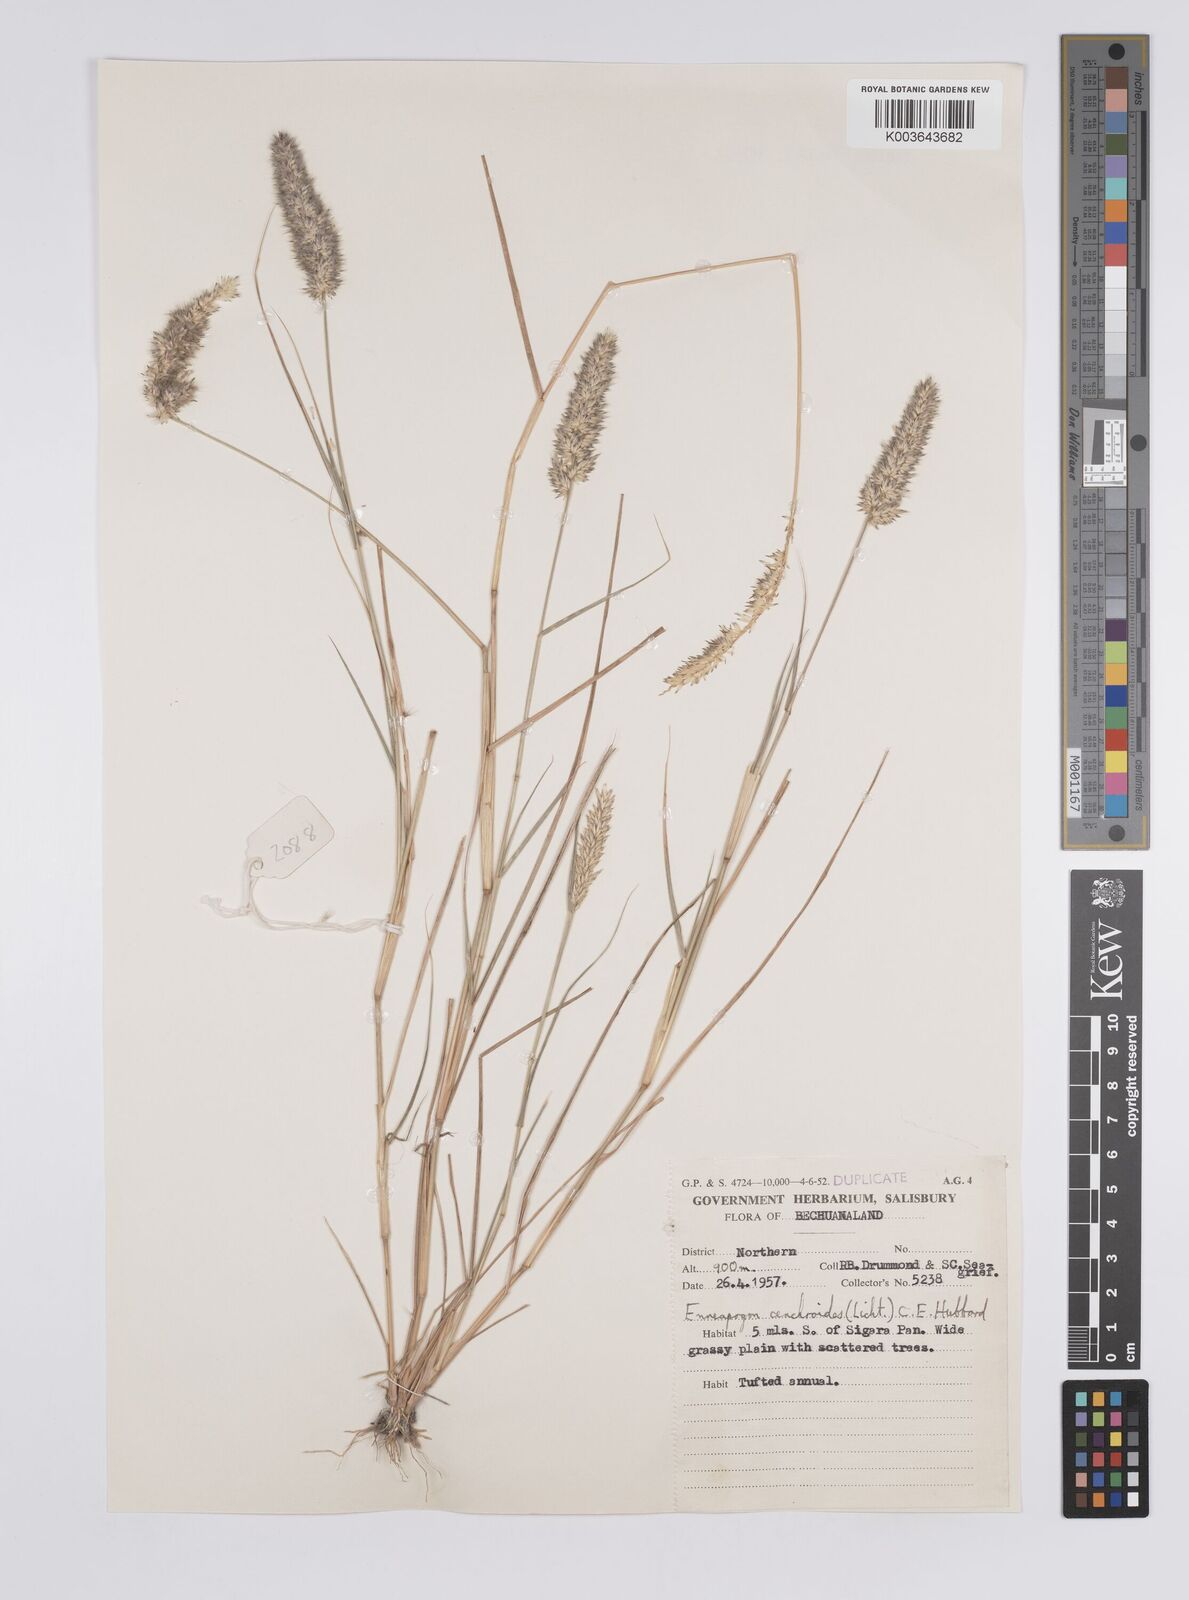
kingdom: Plantae
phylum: Tracheophyta
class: Liliopsida
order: Poales
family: Poaceae
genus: Enneapogon
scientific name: Enneapogon cenchroides
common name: Soft feather pappusgrass
